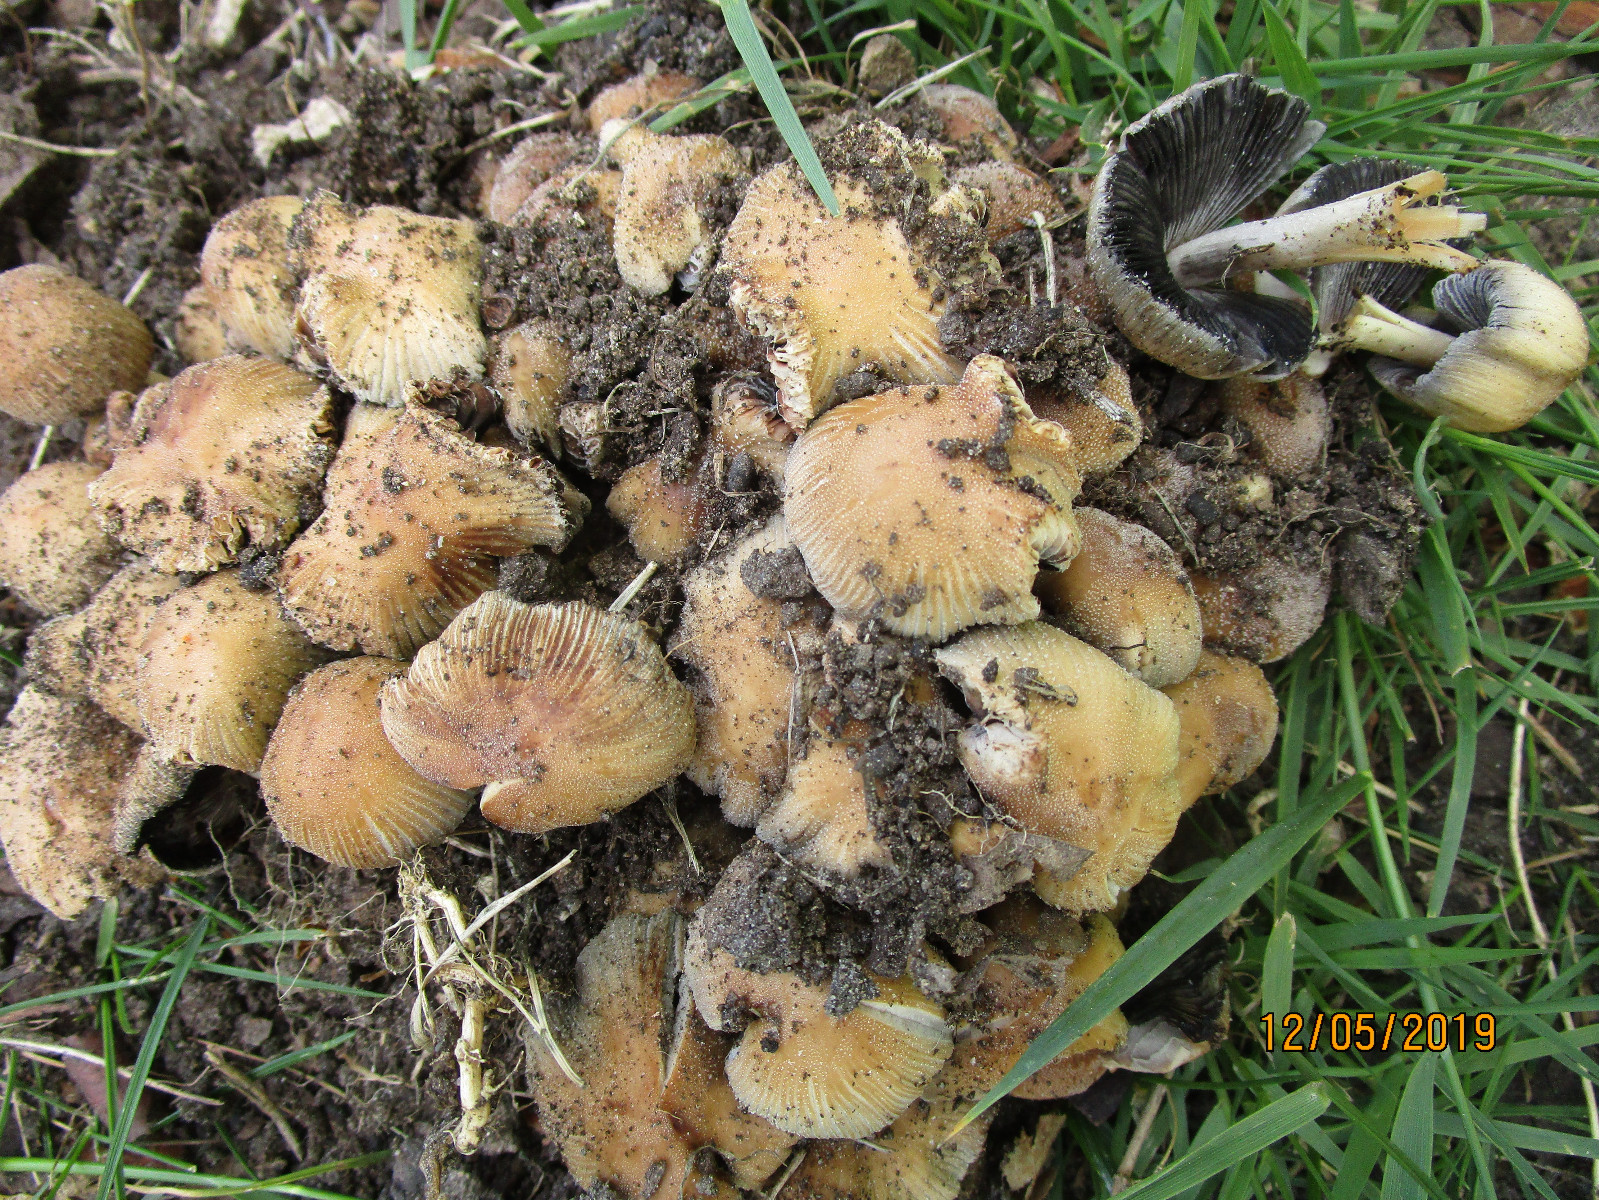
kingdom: Fungi
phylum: Basidiomycota
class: Agaricomycetes
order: Agaricales
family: Psathyrellaceae
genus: Coprinellus
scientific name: Coprinellus micaceus
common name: glimmer-blækhat
